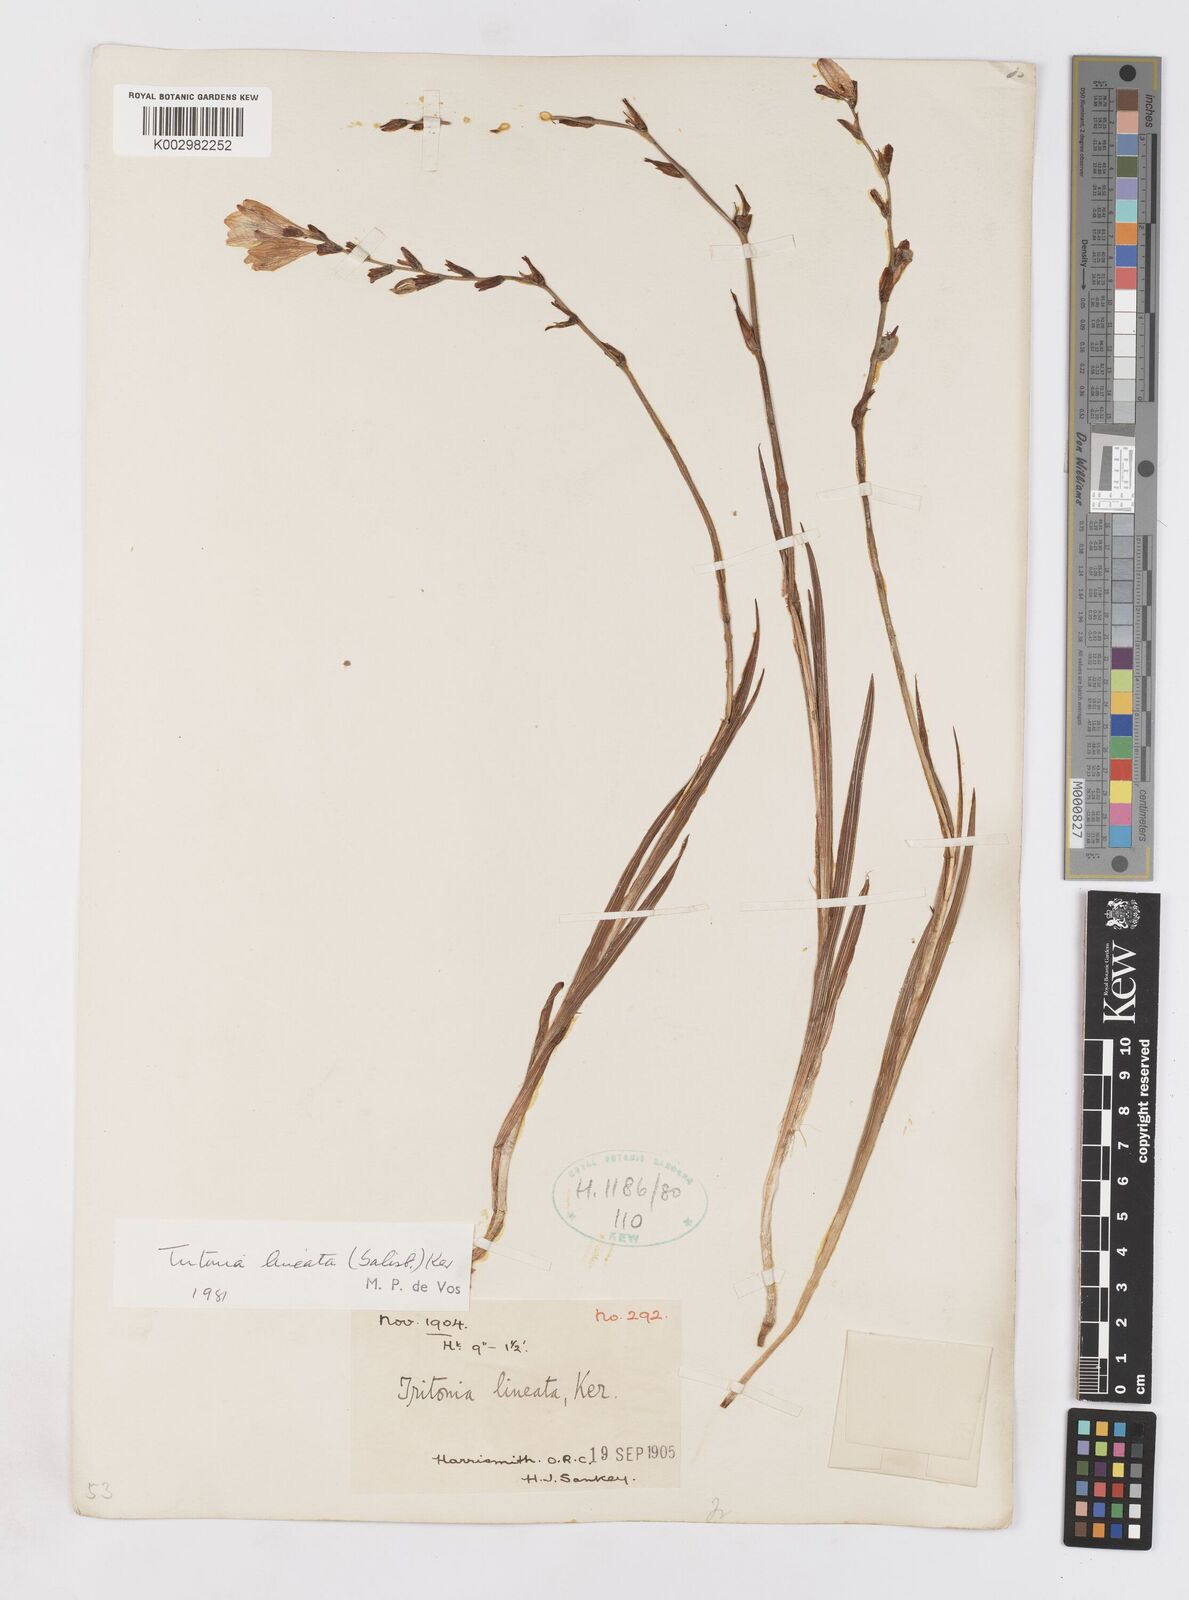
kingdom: Plantae
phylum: Tracheophyta
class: Liliopsida
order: Asparagales
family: Iridaceae
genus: Tritonia
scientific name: Tritonia gladiolaris
